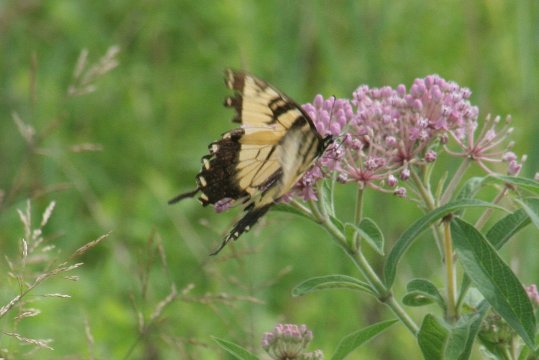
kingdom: Animalia
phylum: Arthropoda
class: Insecta
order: Lepidoptera
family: Papilionidae
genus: Pterourus
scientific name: Pterourus glaucus
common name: Eastern Tiger Swallowtail
